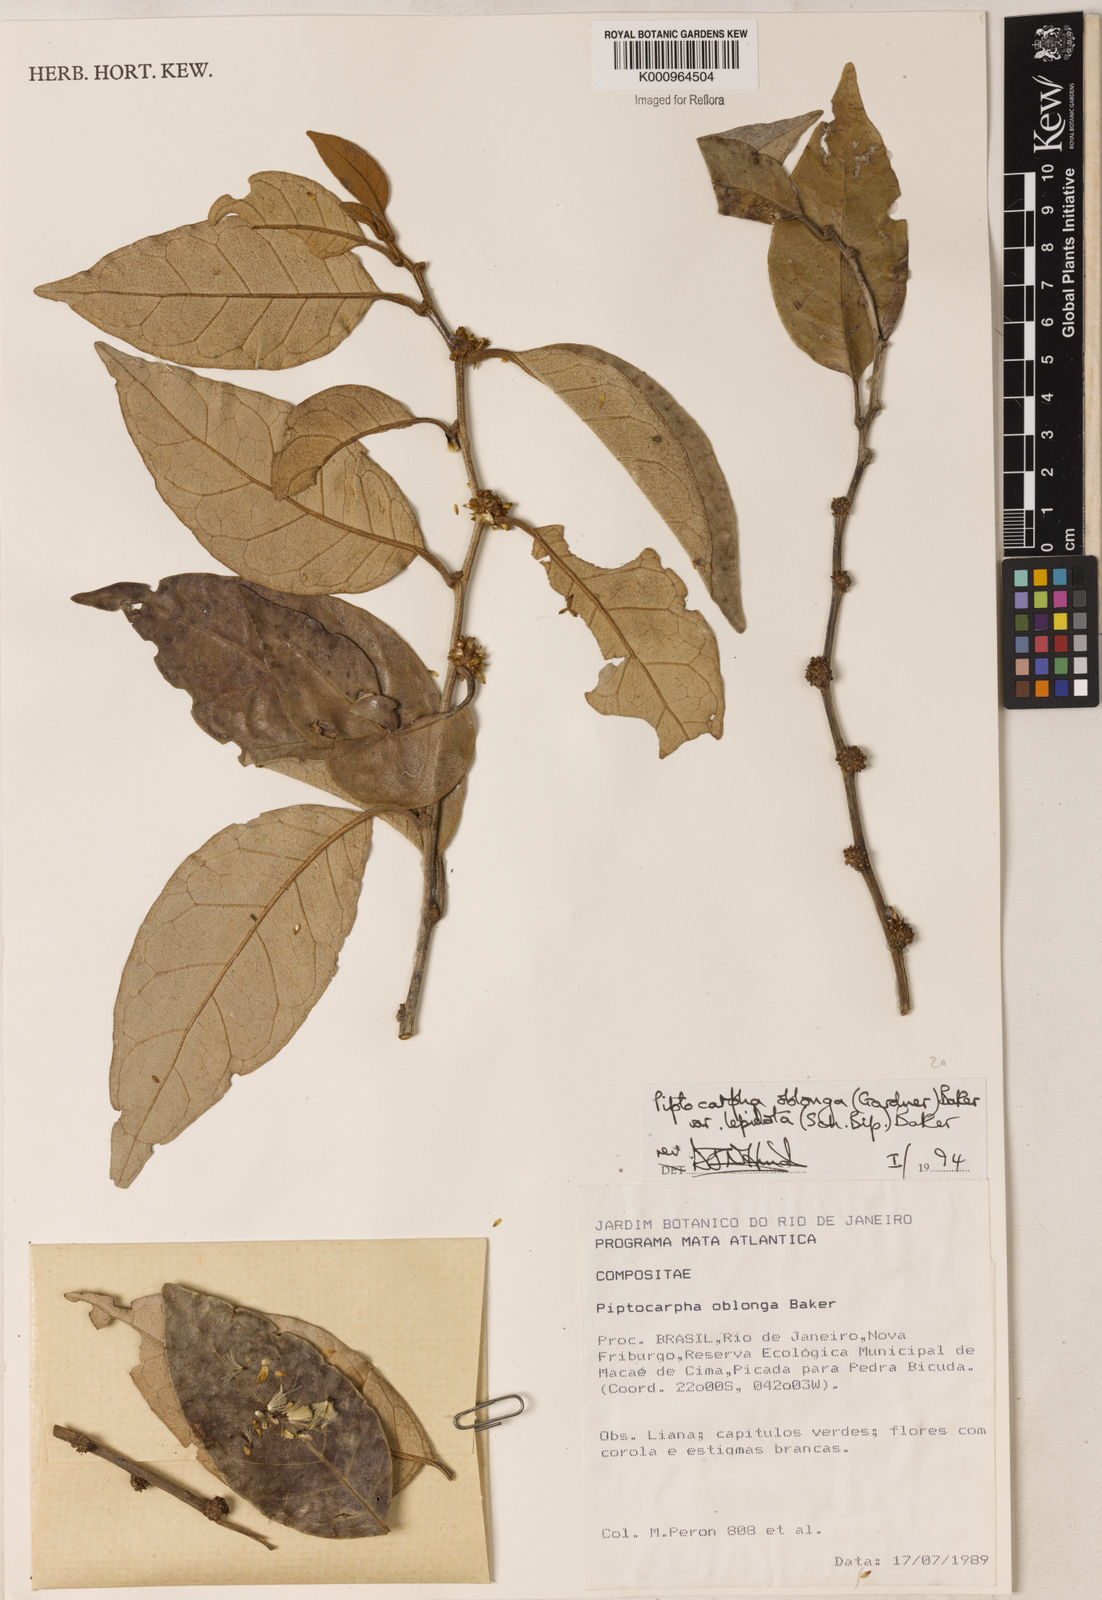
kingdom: Plantae
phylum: Tracheophyta
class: Magnoliopsida
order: Asterales
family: Asteraceae
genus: Piptocarpha
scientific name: Piptocarpha oblonga
